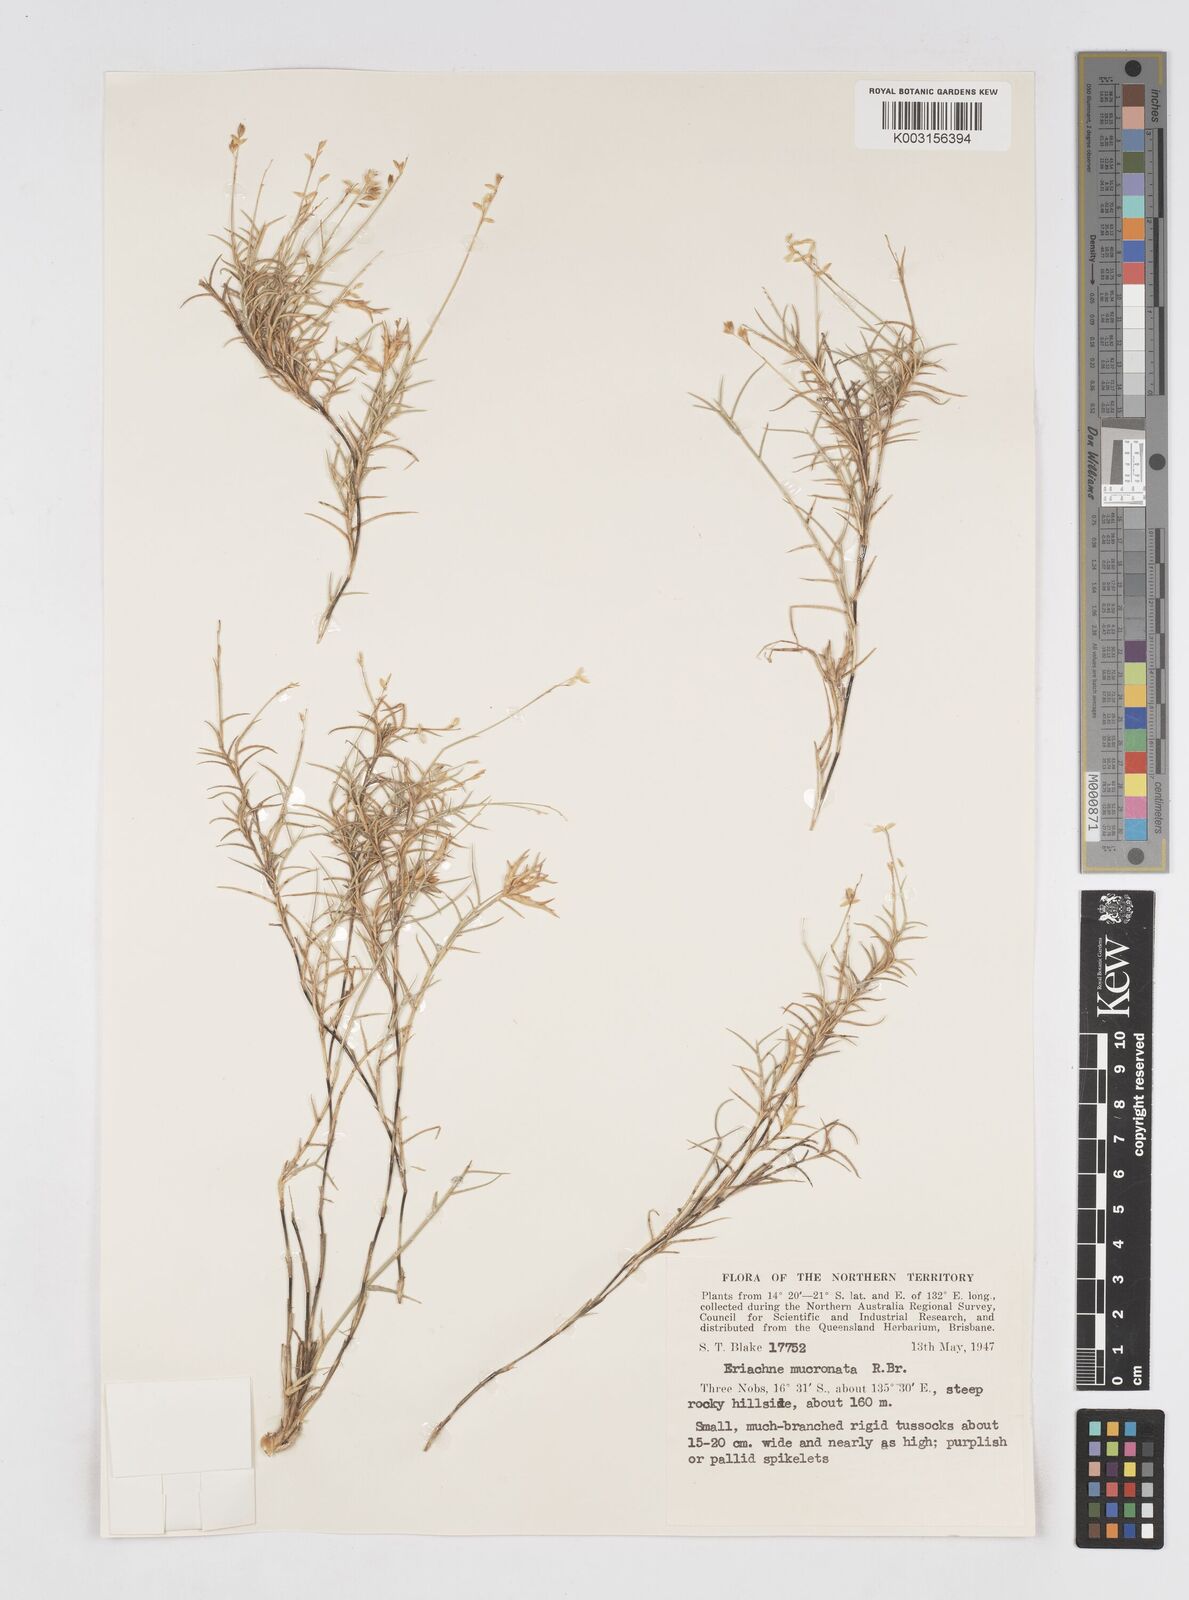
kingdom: Plantae
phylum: Tracheophyta
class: Liliopsida
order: Poales
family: Poaceae
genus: Eriachne
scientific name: Eriachne mucronata
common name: Mountain wanderrie grass
